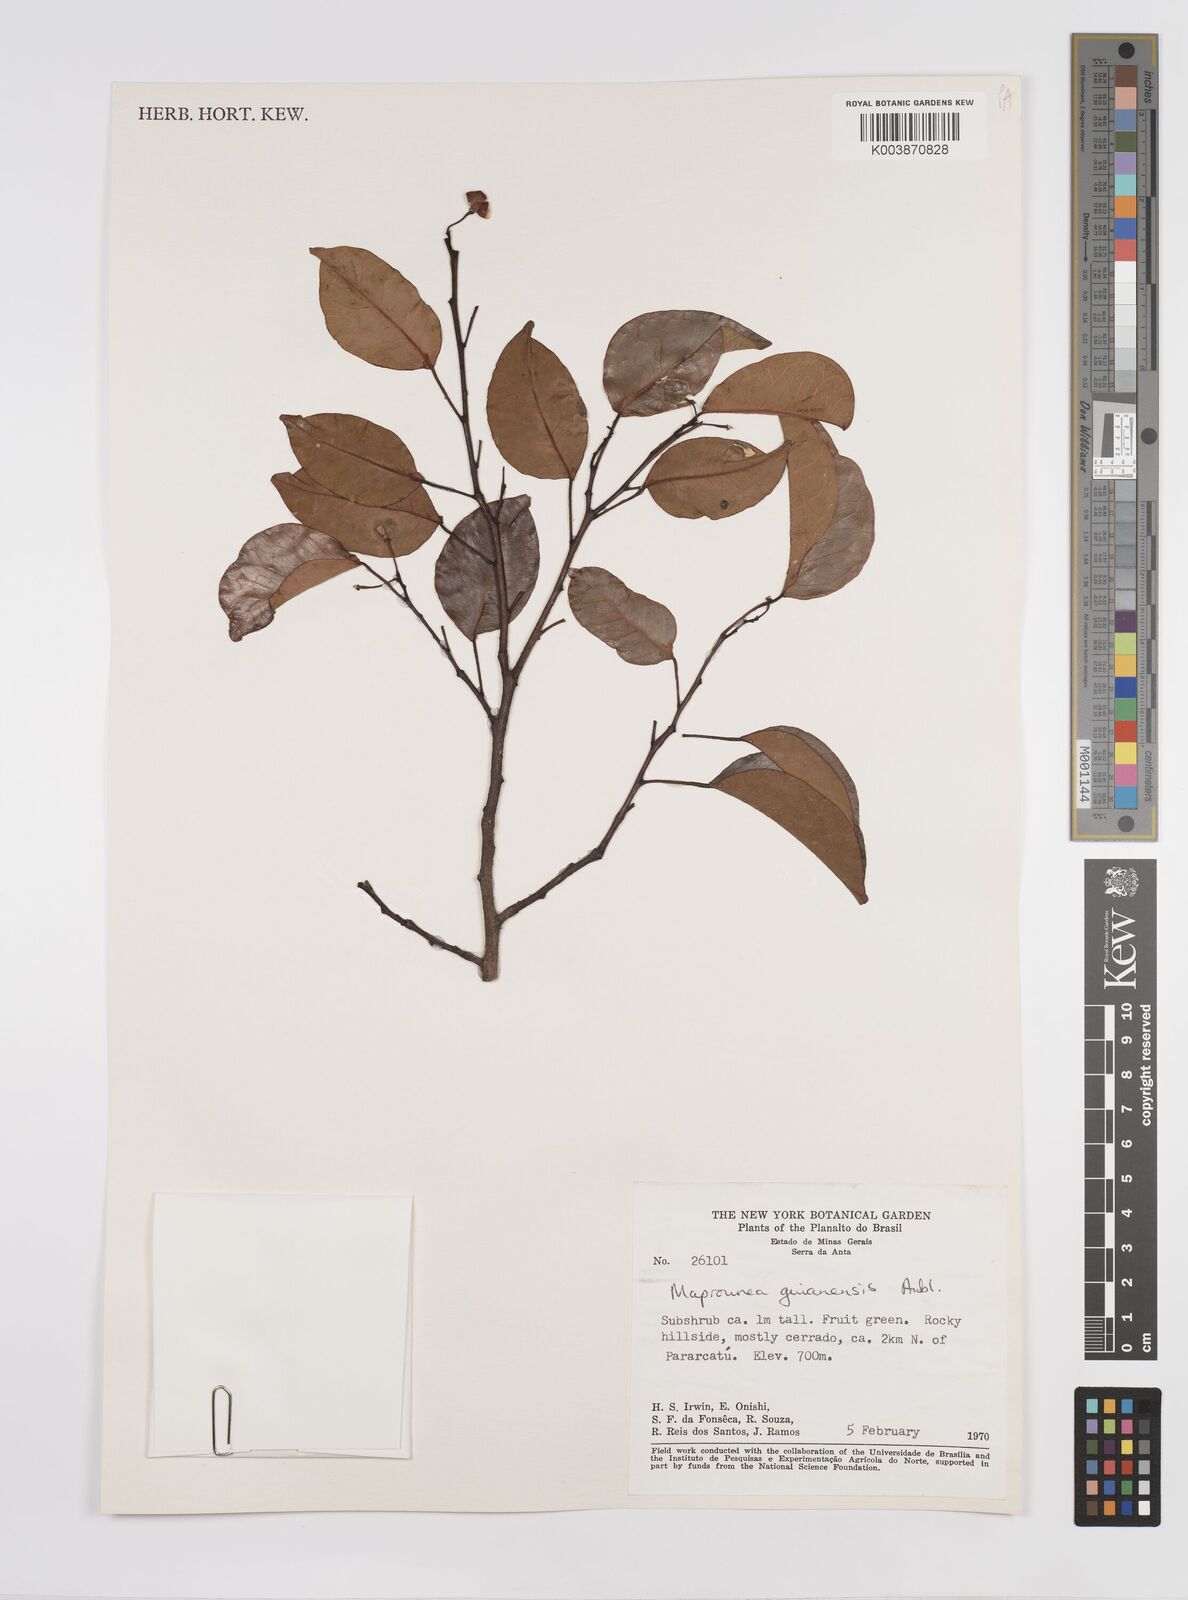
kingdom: Plantae
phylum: Tracheophyta
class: Magnoliopsida
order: Malpighiales
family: Euphorbiaceae
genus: Maprounea
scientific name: Maprounea guianensis
